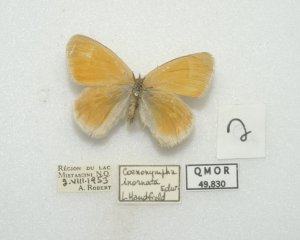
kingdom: Animalia
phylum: Arthropoda
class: Insecta
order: Lepidoptera
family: Nymphalidae
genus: Coenonympha
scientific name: Coenonympha tullia
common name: Large Heath
